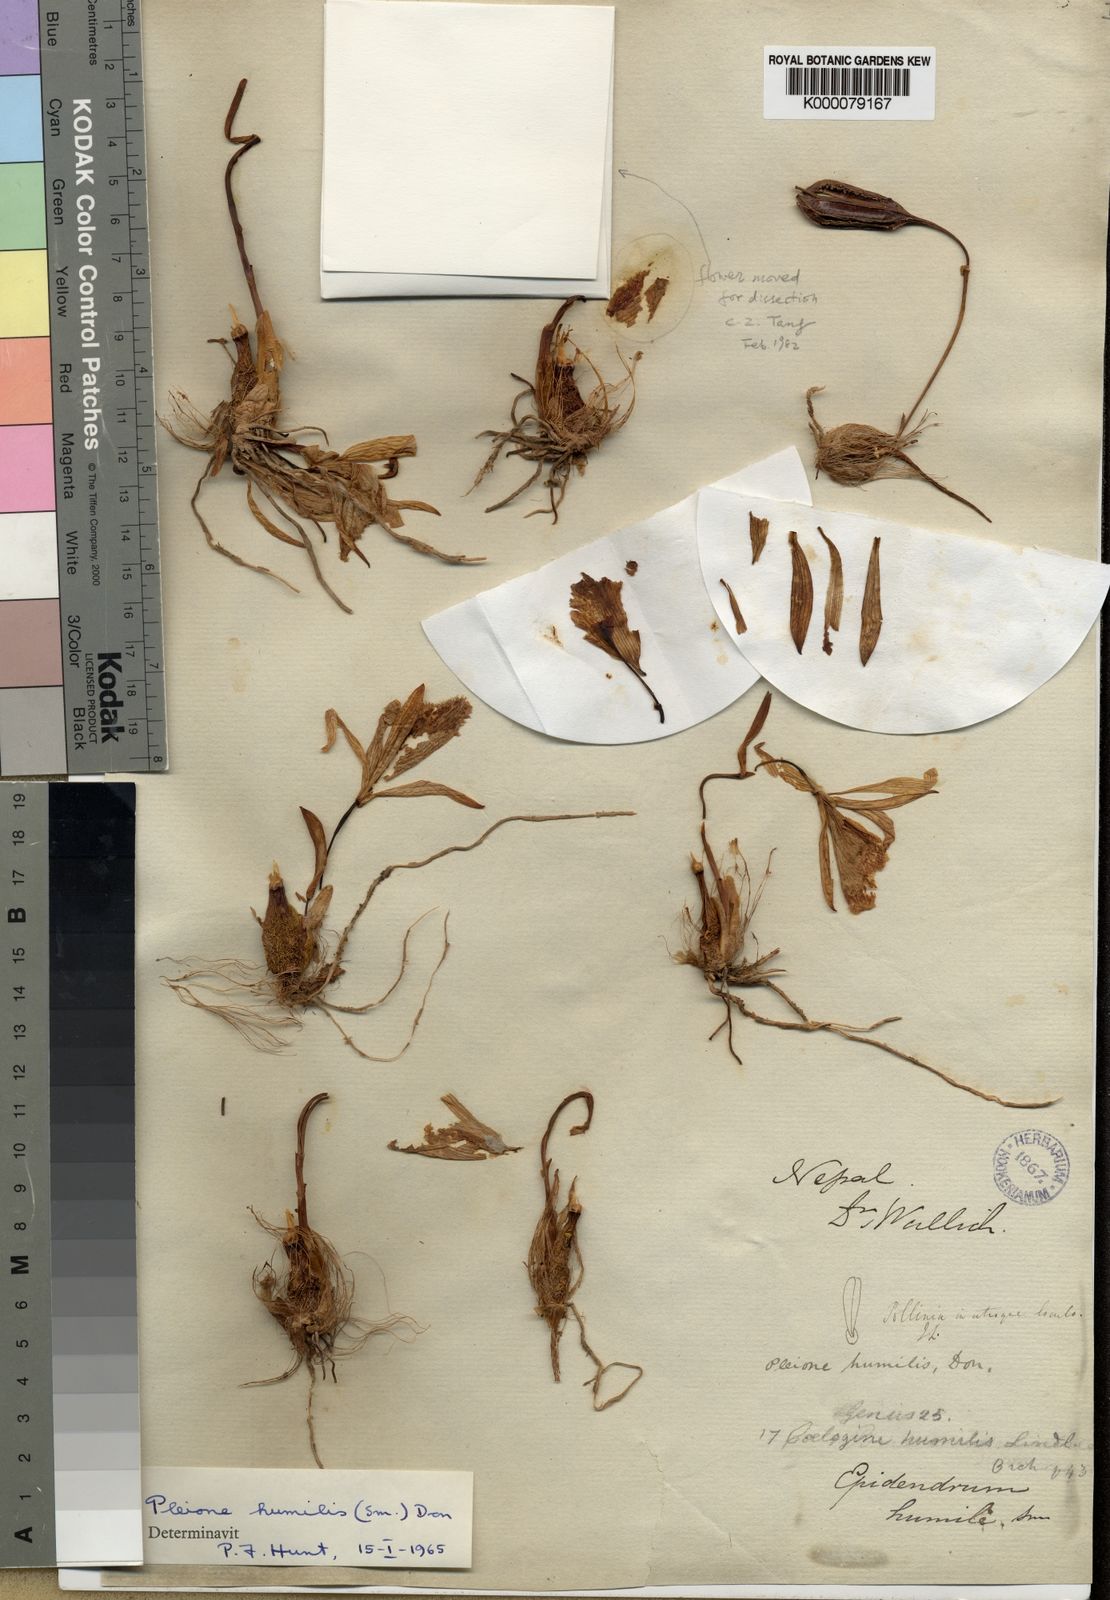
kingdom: Plantae
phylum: Tracheophyta
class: Liliopsida
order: Asparagales
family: Orchidaceae
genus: Pleione
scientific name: Pleione humilis
